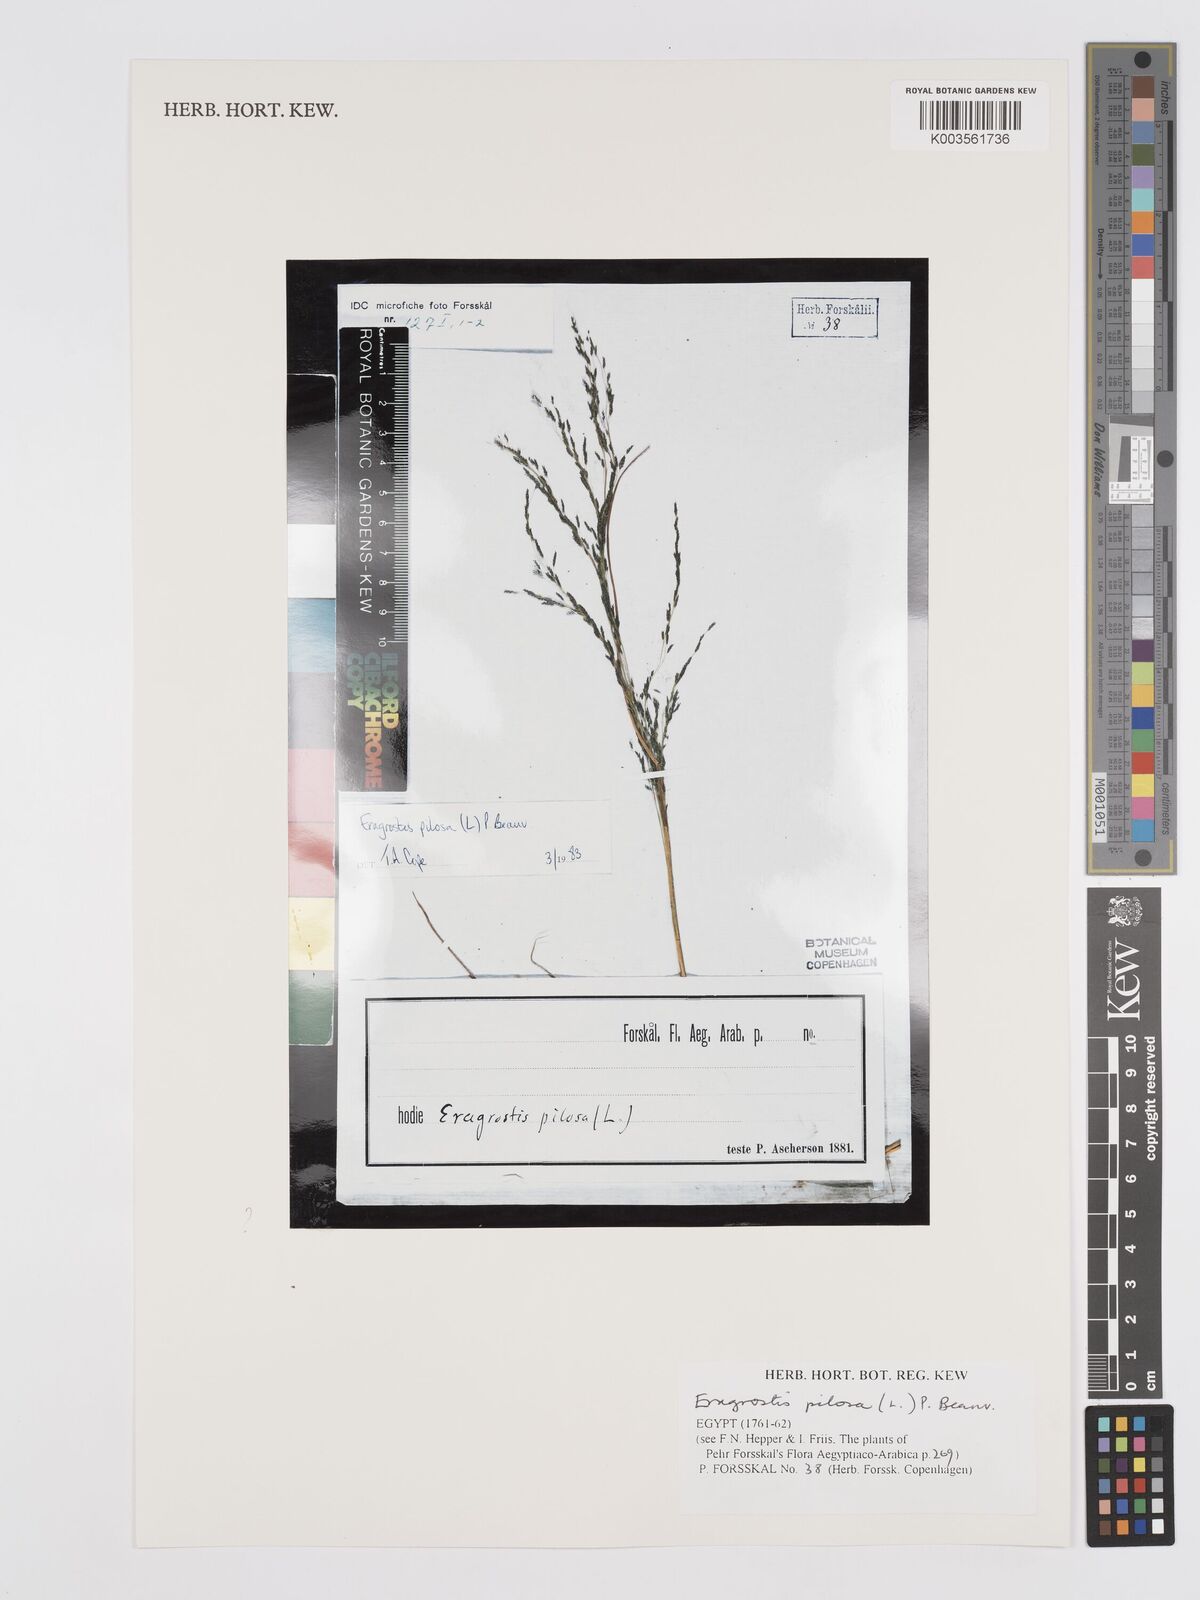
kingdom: Plantae
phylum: Tracheophyta
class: Liliopsida
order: Poales
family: Poaceae
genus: Eragrostis
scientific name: Eragrostis pilosa
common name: Indian lovegrass
